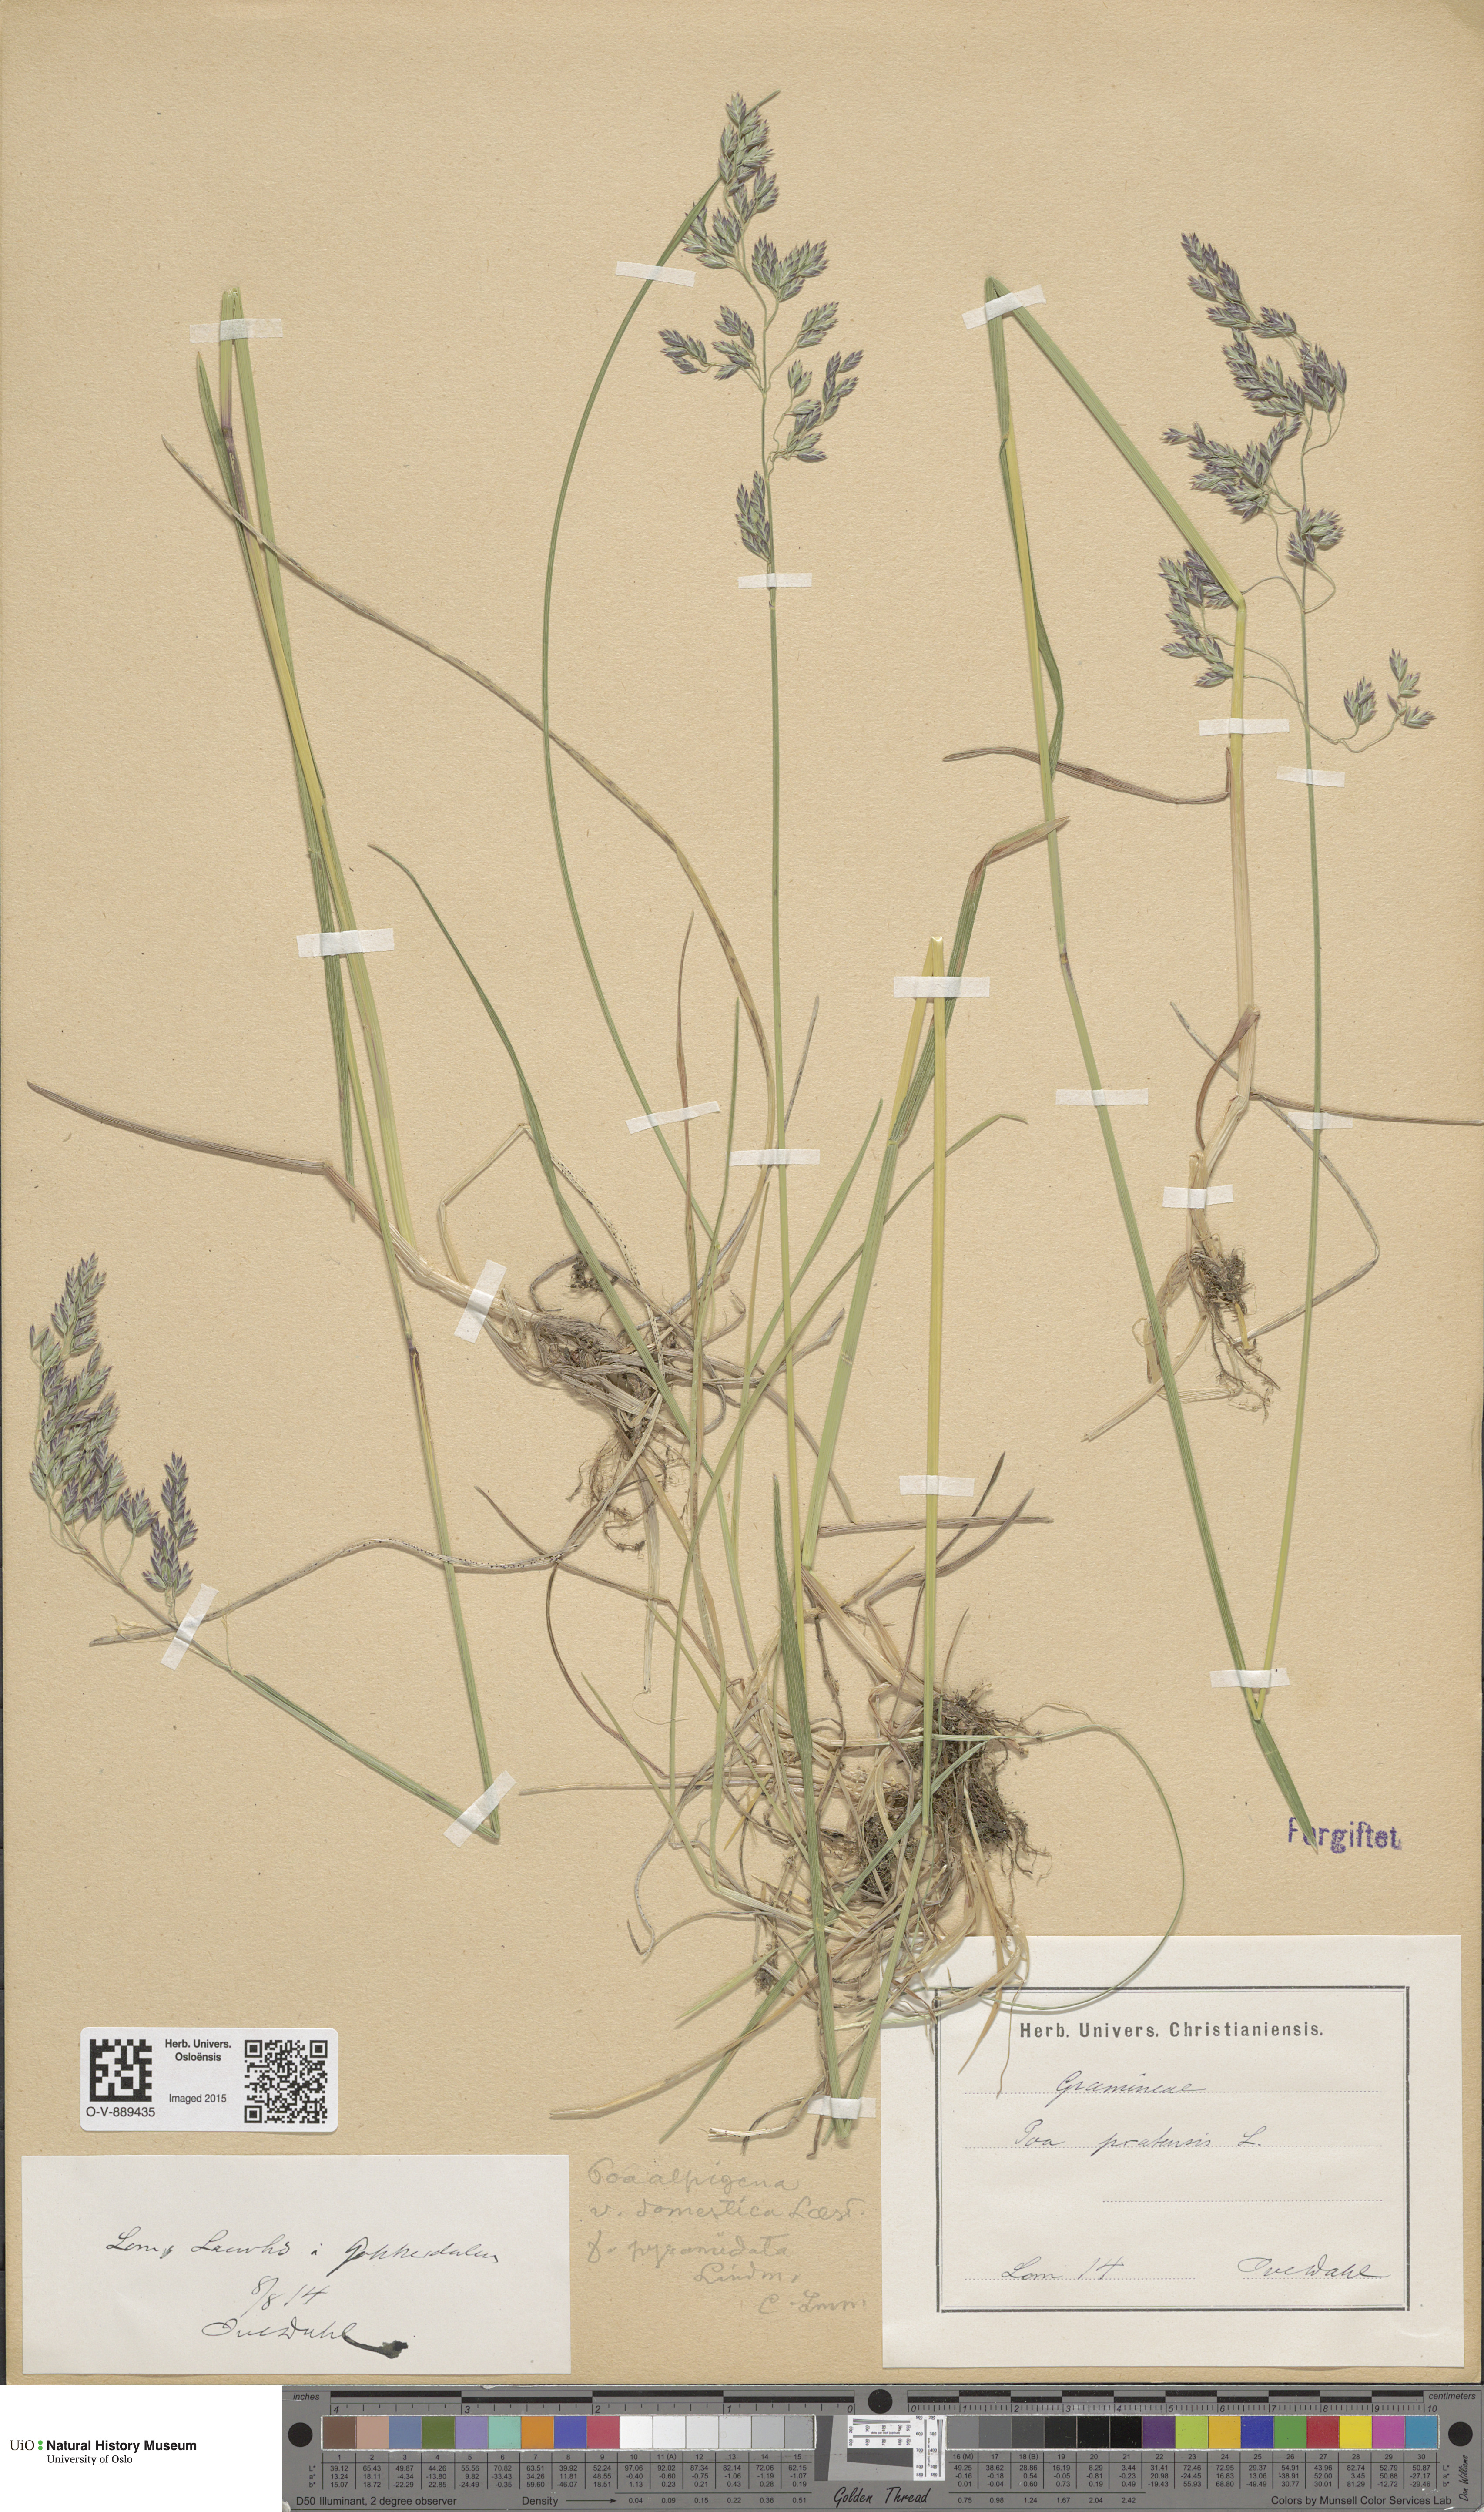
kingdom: Plantae
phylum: Tracheophyta
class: Liliopsida
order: Poales
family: Poaceae
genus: Poa
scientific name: Poa pratensis
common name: Kentucky bluegrass
